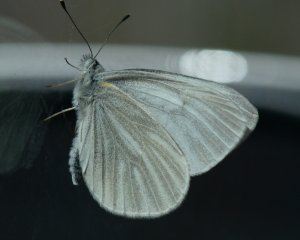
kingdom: Animalia
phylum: Arthropoda
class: Insecta
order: Lepidoptera
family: Pieridae
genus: Pieris
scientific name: Pieris virginiensis
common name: West Virginia White
